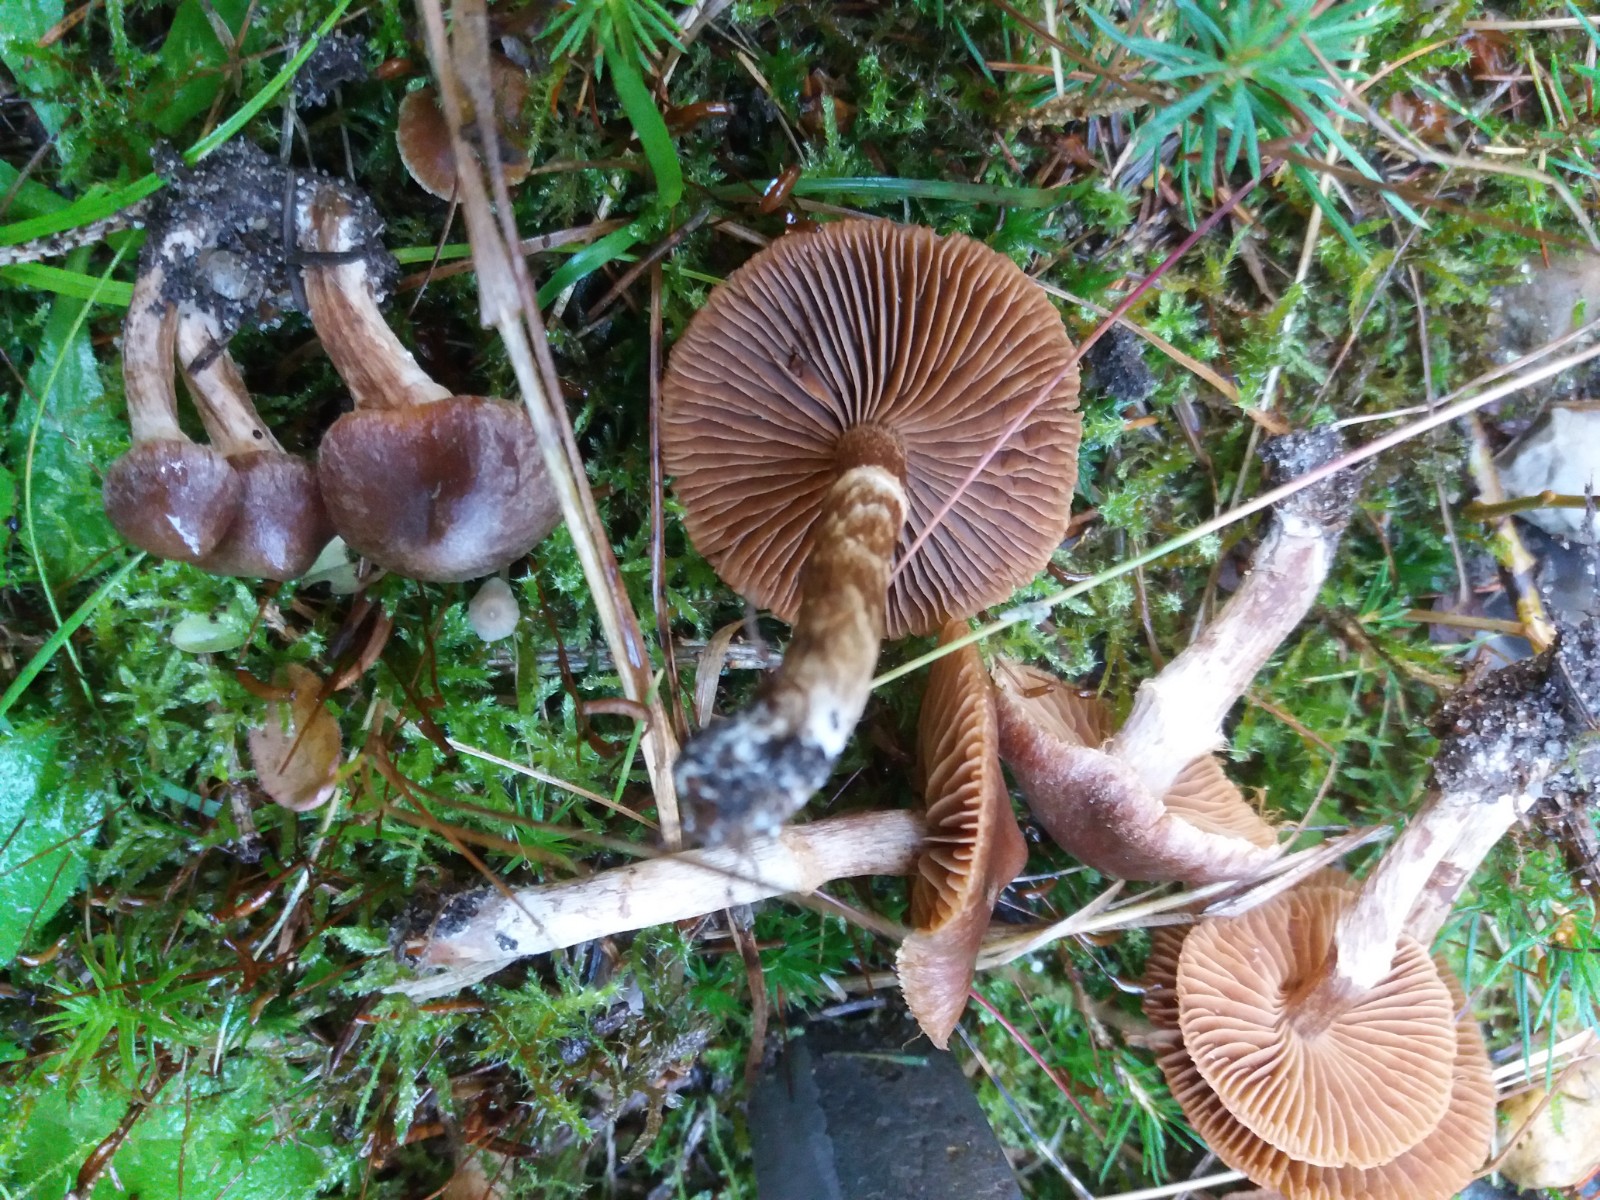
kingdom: Fungi
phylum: Basidiomycota
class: Agaricomycetes
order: Agaricales
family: Cortinariaceae
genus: Cortinarius
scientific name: Cortinarius fusisporus
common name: brunfnugget slørhat
